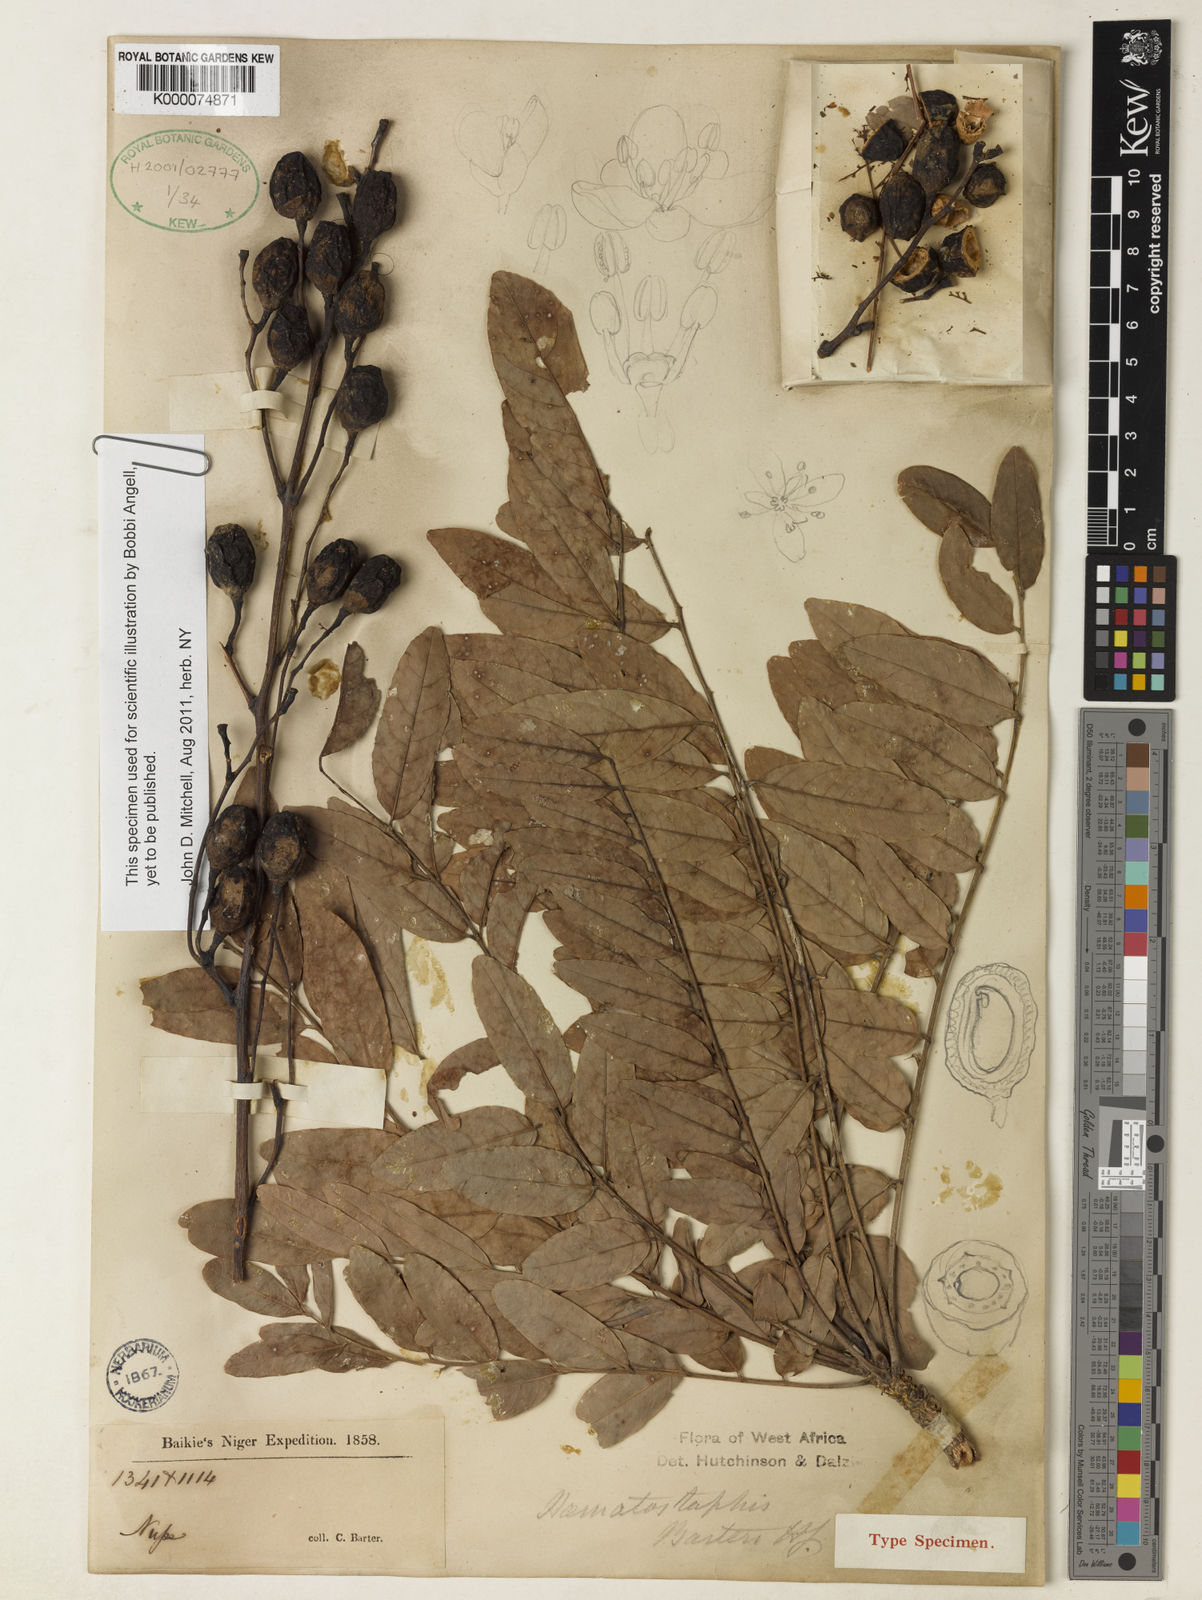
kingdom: Plantae
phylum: Tracheophyta
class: Magnoliopsida
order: Sapindales
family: Anacardiaceae
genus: Haematostaphis
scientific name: Haematostaphis barteri
